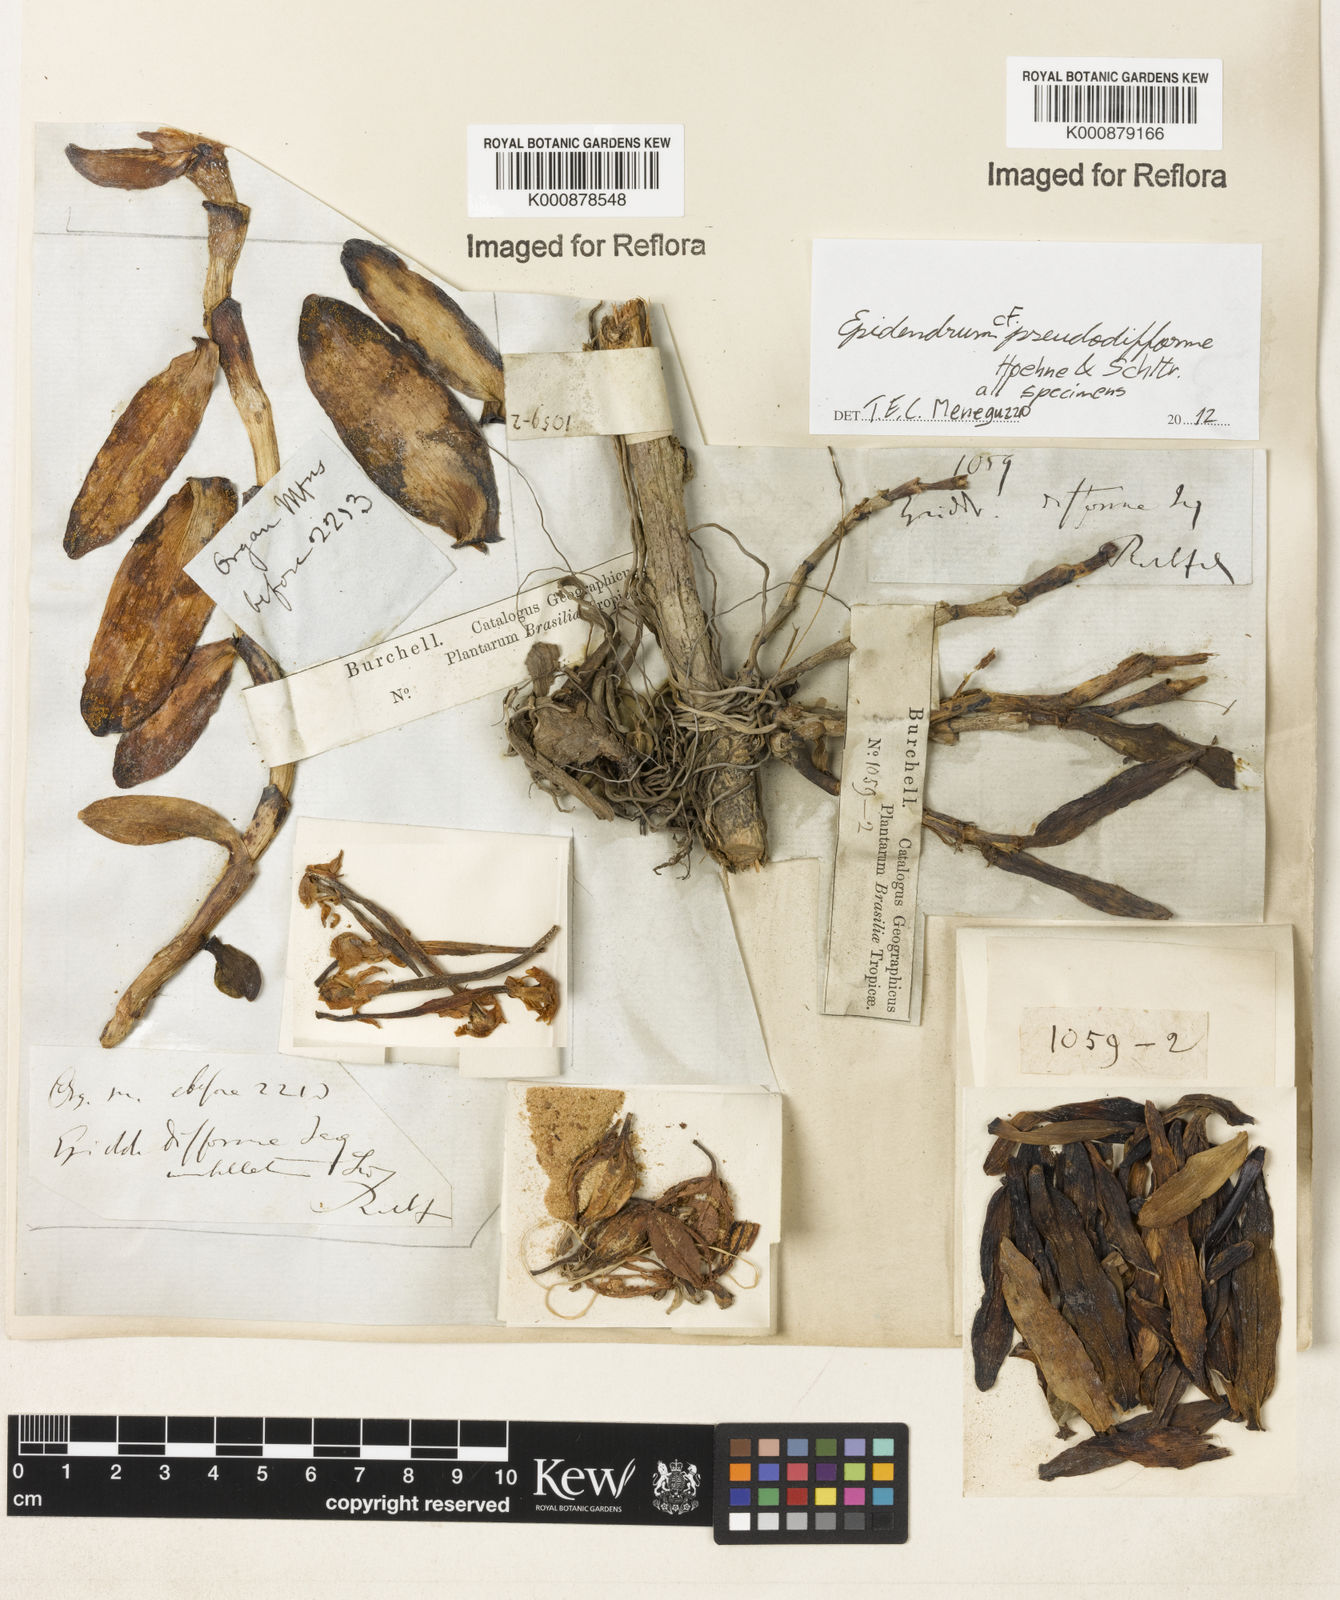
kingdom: Plantae
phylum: Tracheophyta
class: Liliopsida
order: Asparagales
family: Orchidaceae
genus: Epidendrum
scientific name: Epidendrum pseudodifforme
